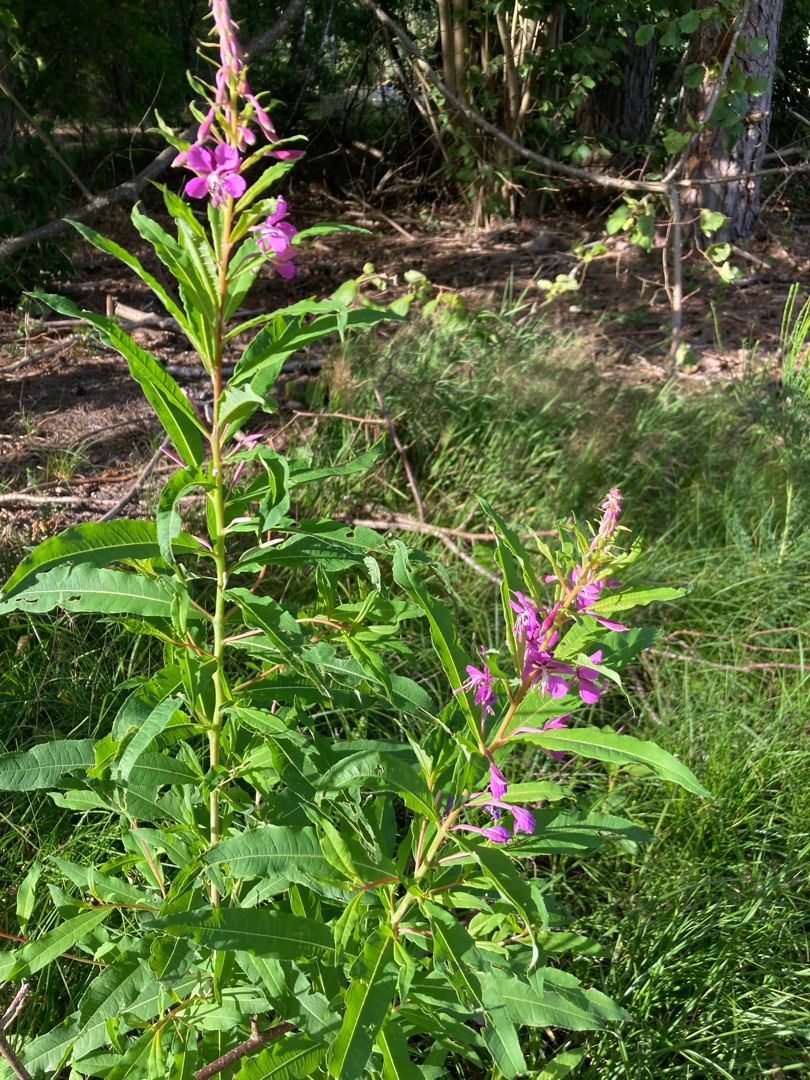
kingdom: Plantae
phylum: Tracheophyta
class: Magnoliopsida
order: Myrtales
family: Onagraceae
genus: Chamaenerion
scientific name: Chamaenerion angustifolium
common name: Gederams
